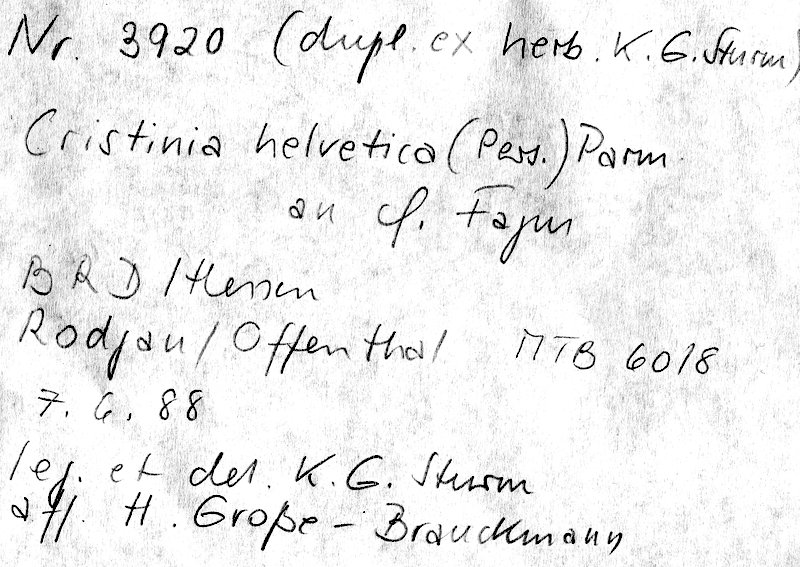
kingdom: Fungi
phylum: Basidiomycota
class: Agaricomycetes
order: Agaricales
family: Stephanosporaceae
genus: Cristinia
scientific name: Cristinia helvetica
